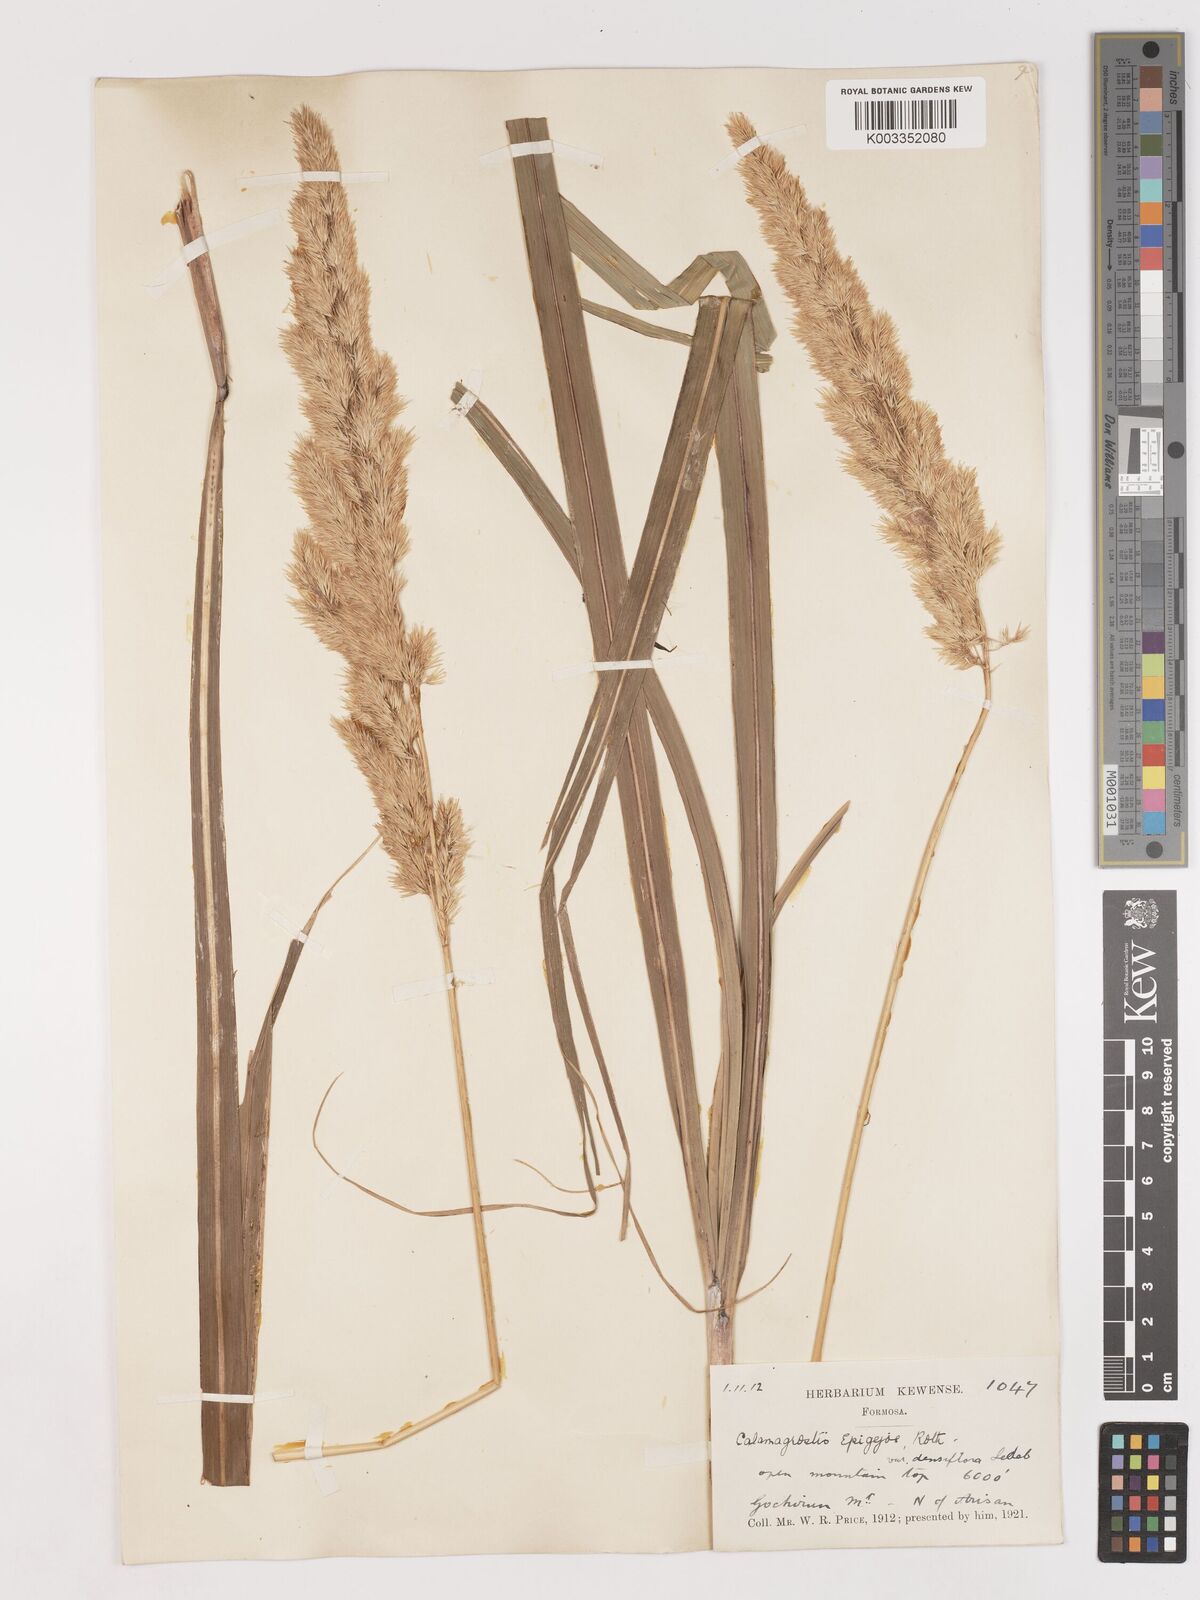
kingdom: Plantae
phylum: Tracheophyta
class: Liliopsida
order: Poales
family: Poaceae
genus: Calamagrostis
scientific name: Calamagrostis epigejos
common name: Wood small-reed
